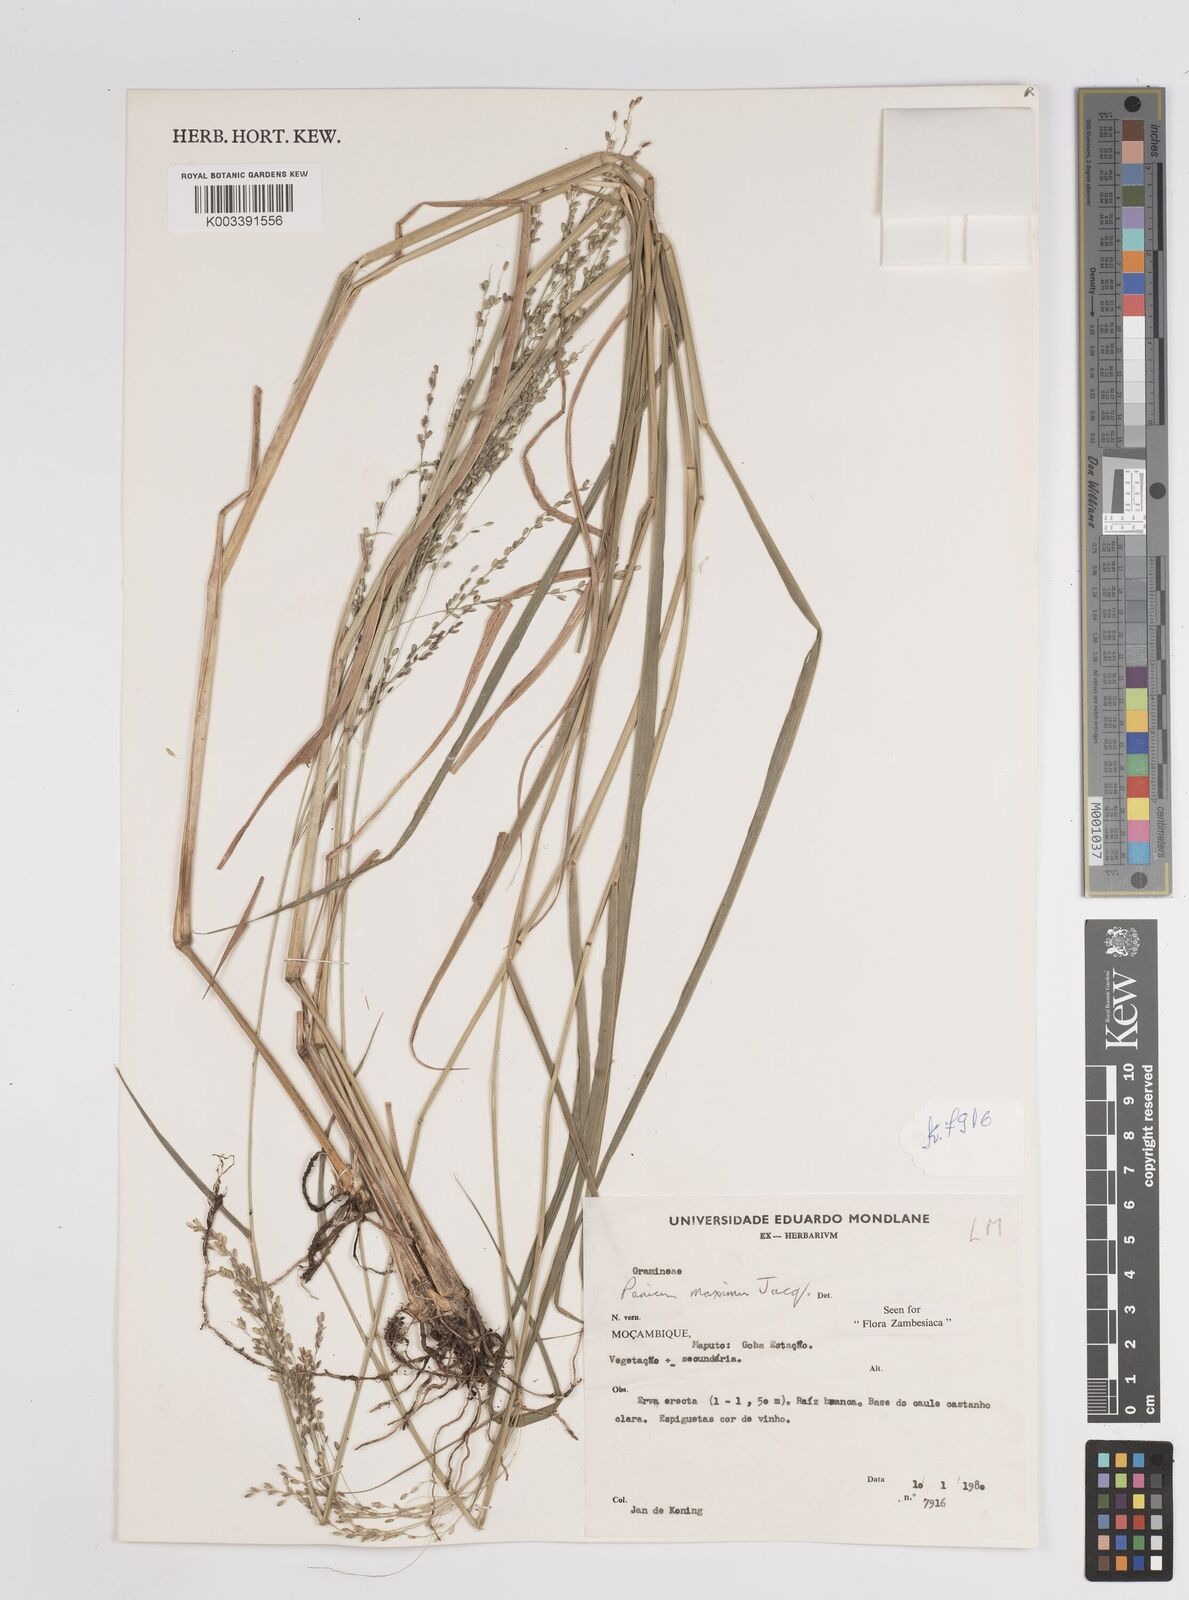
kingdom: Plantae
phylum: Tracheophyta
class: Liliopsida
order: Poales
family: Poaceae
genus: Megathyrsus
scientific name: Megathyrsus maximus
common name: Guineagrass
